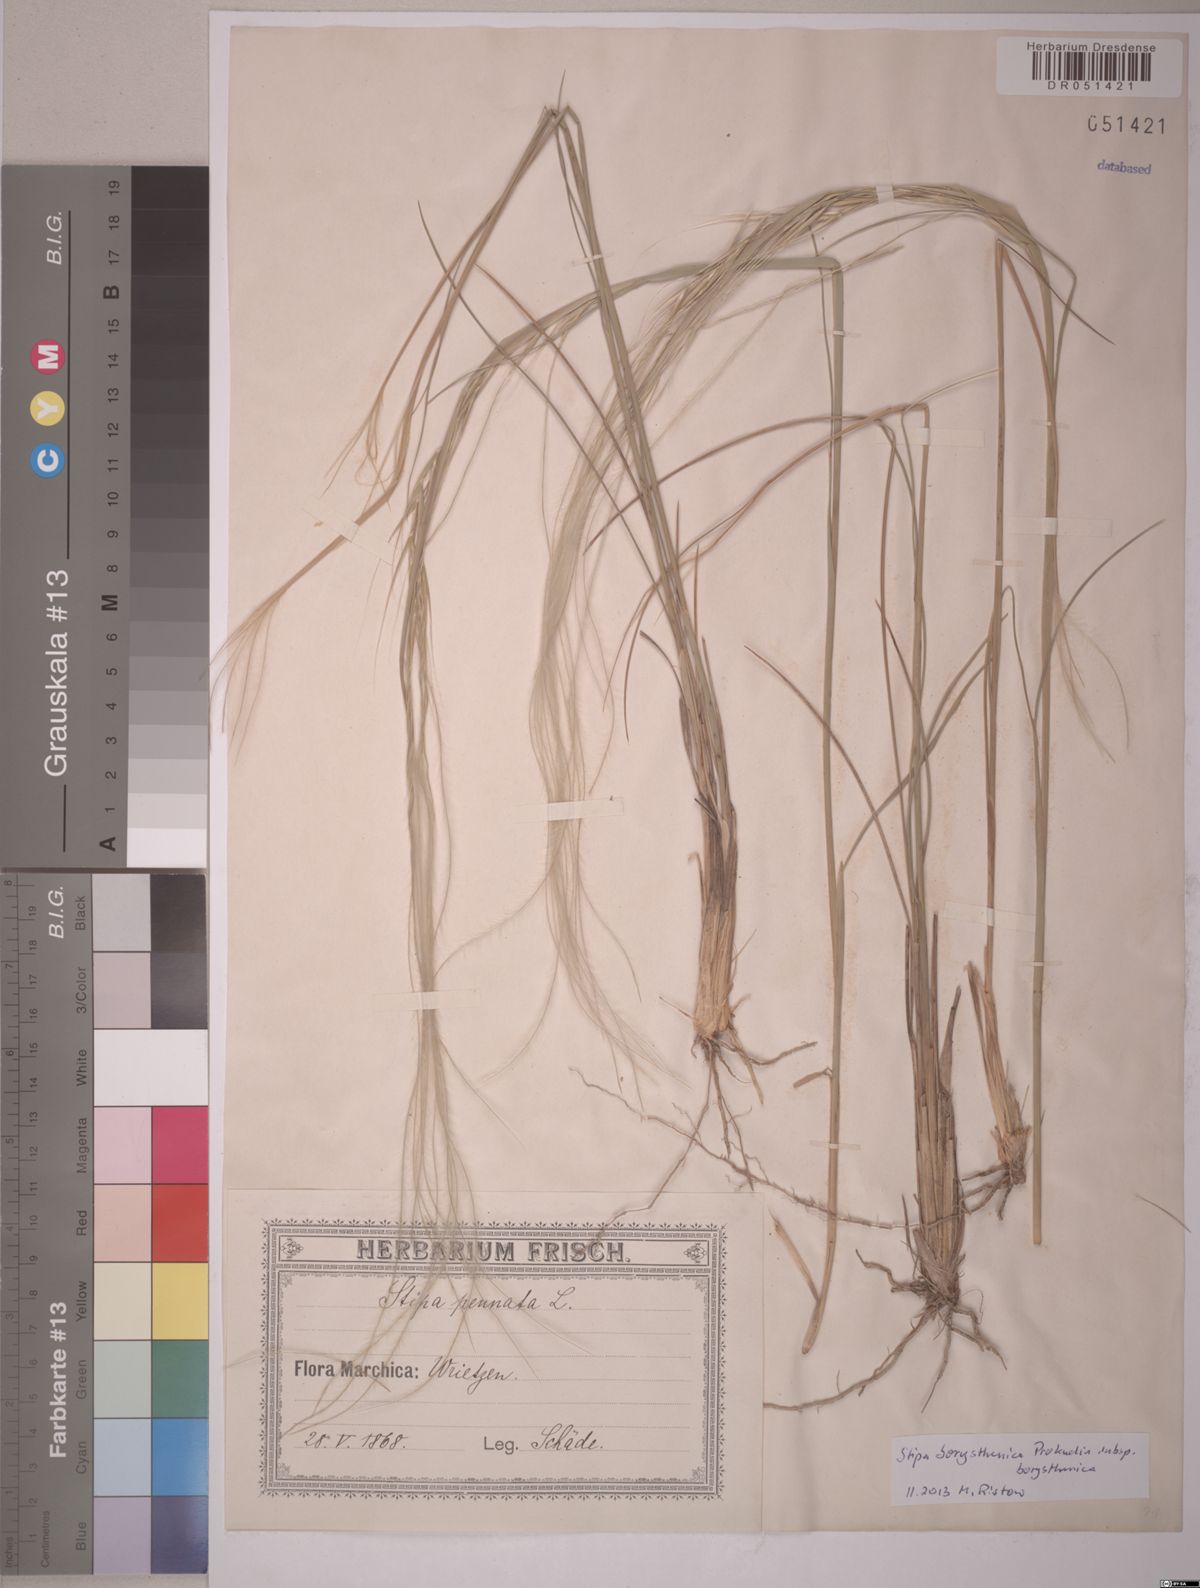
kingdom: Plantae
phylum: Tracheophyta
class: Liliopsida
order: Poales
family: Poaceae
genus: Stipa
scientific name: Stipa borysthenica
